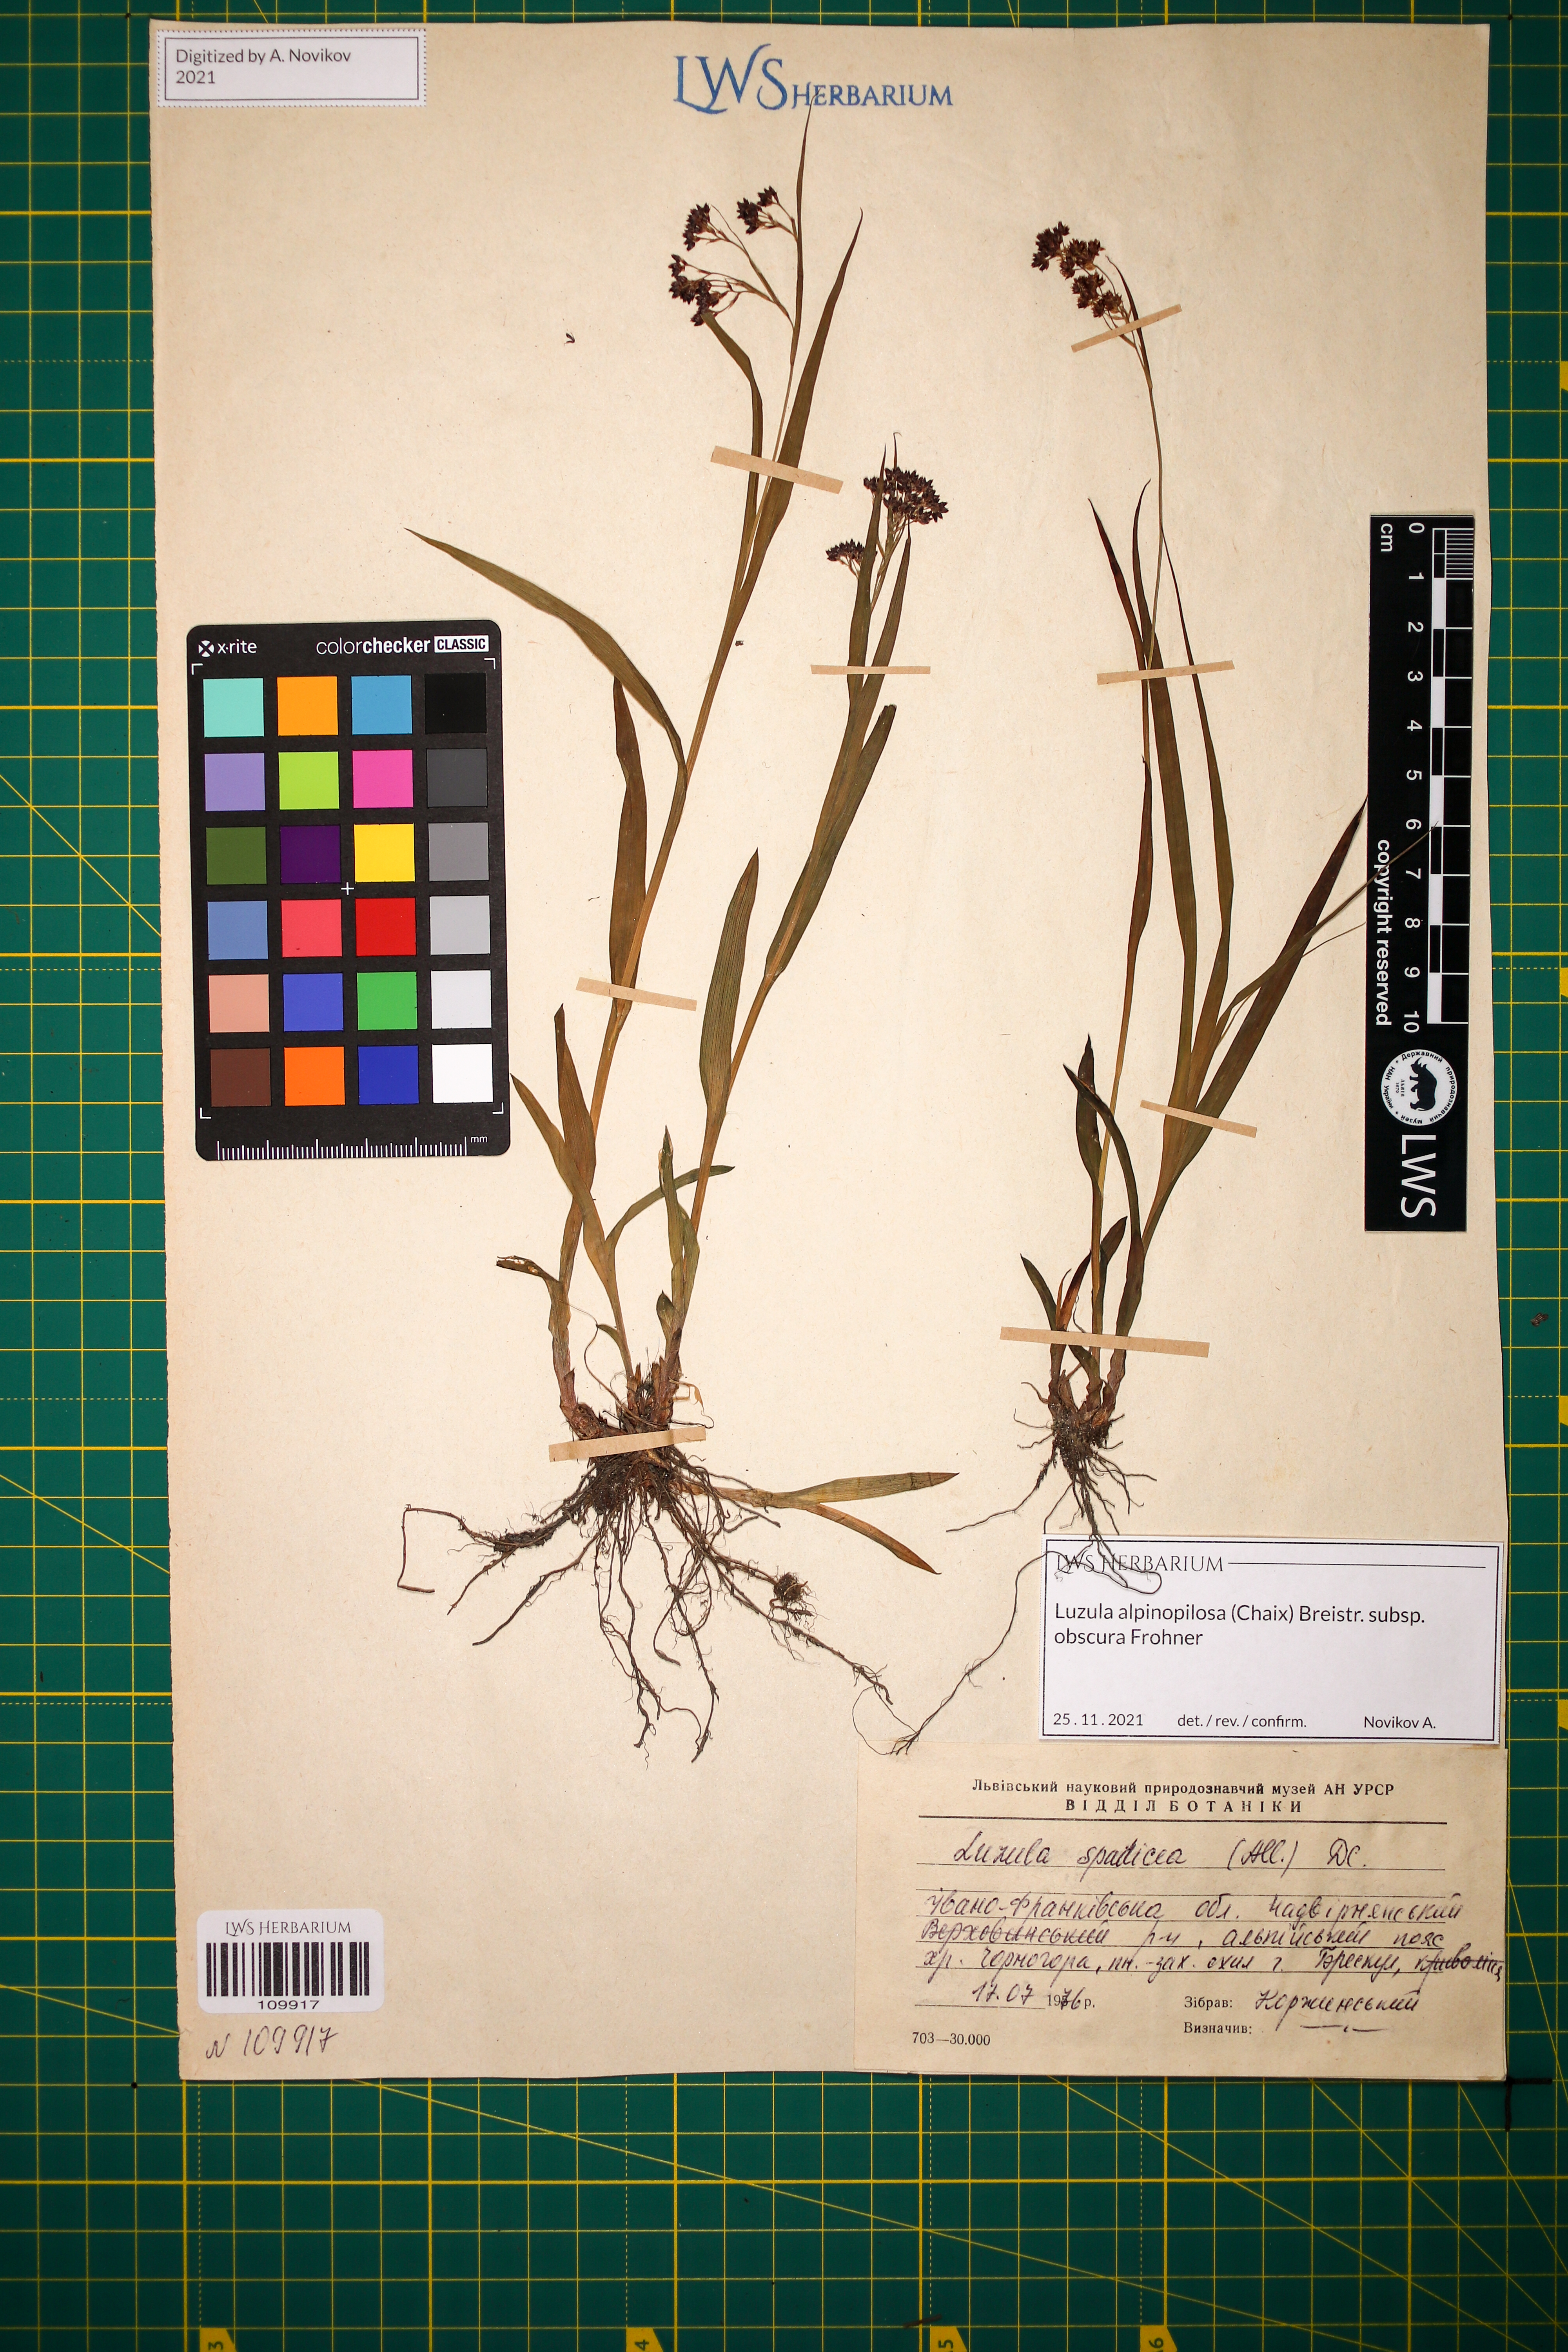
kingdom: Plantae
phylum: Tracheophyta
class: Liliopsida
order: Poales
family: Juncaceae
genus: Luzula
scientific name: Luzula alpinopilosa
